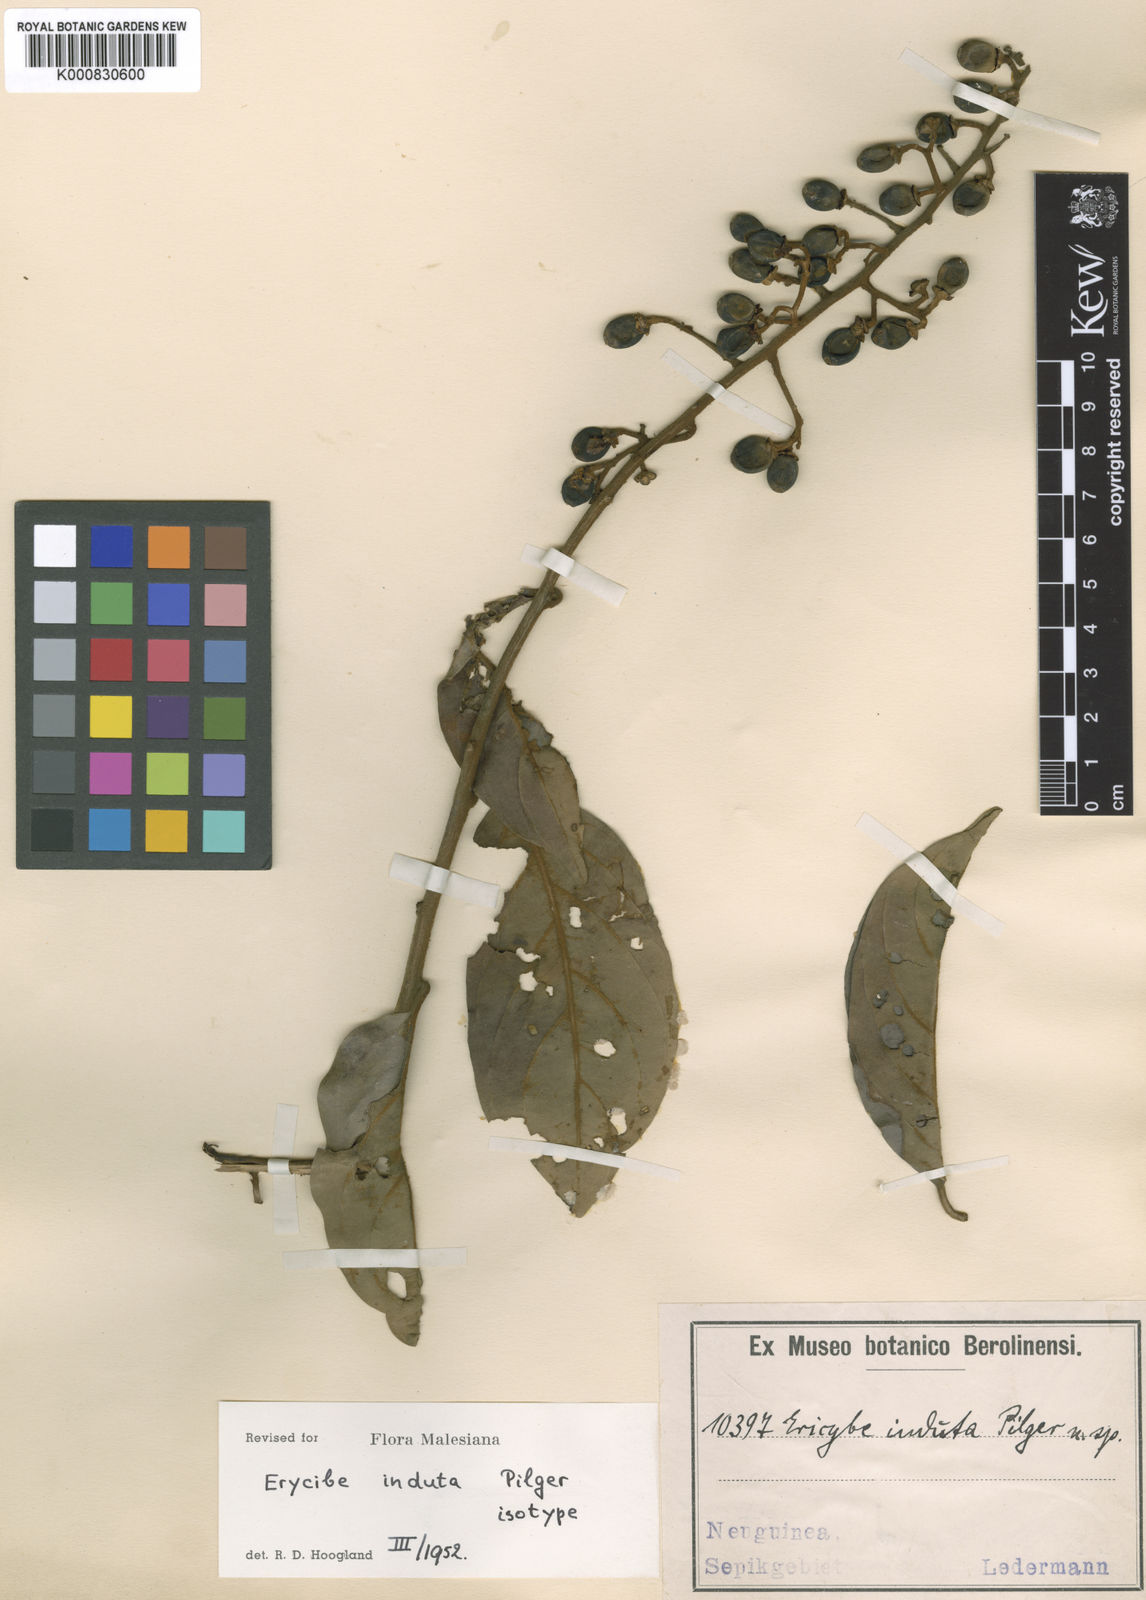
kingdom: Plantae
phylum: Tracheophyta
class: Magnoliopsida
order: Solanales
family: Convolvulaceae
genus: Erycibe
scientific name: Erycibe induta
